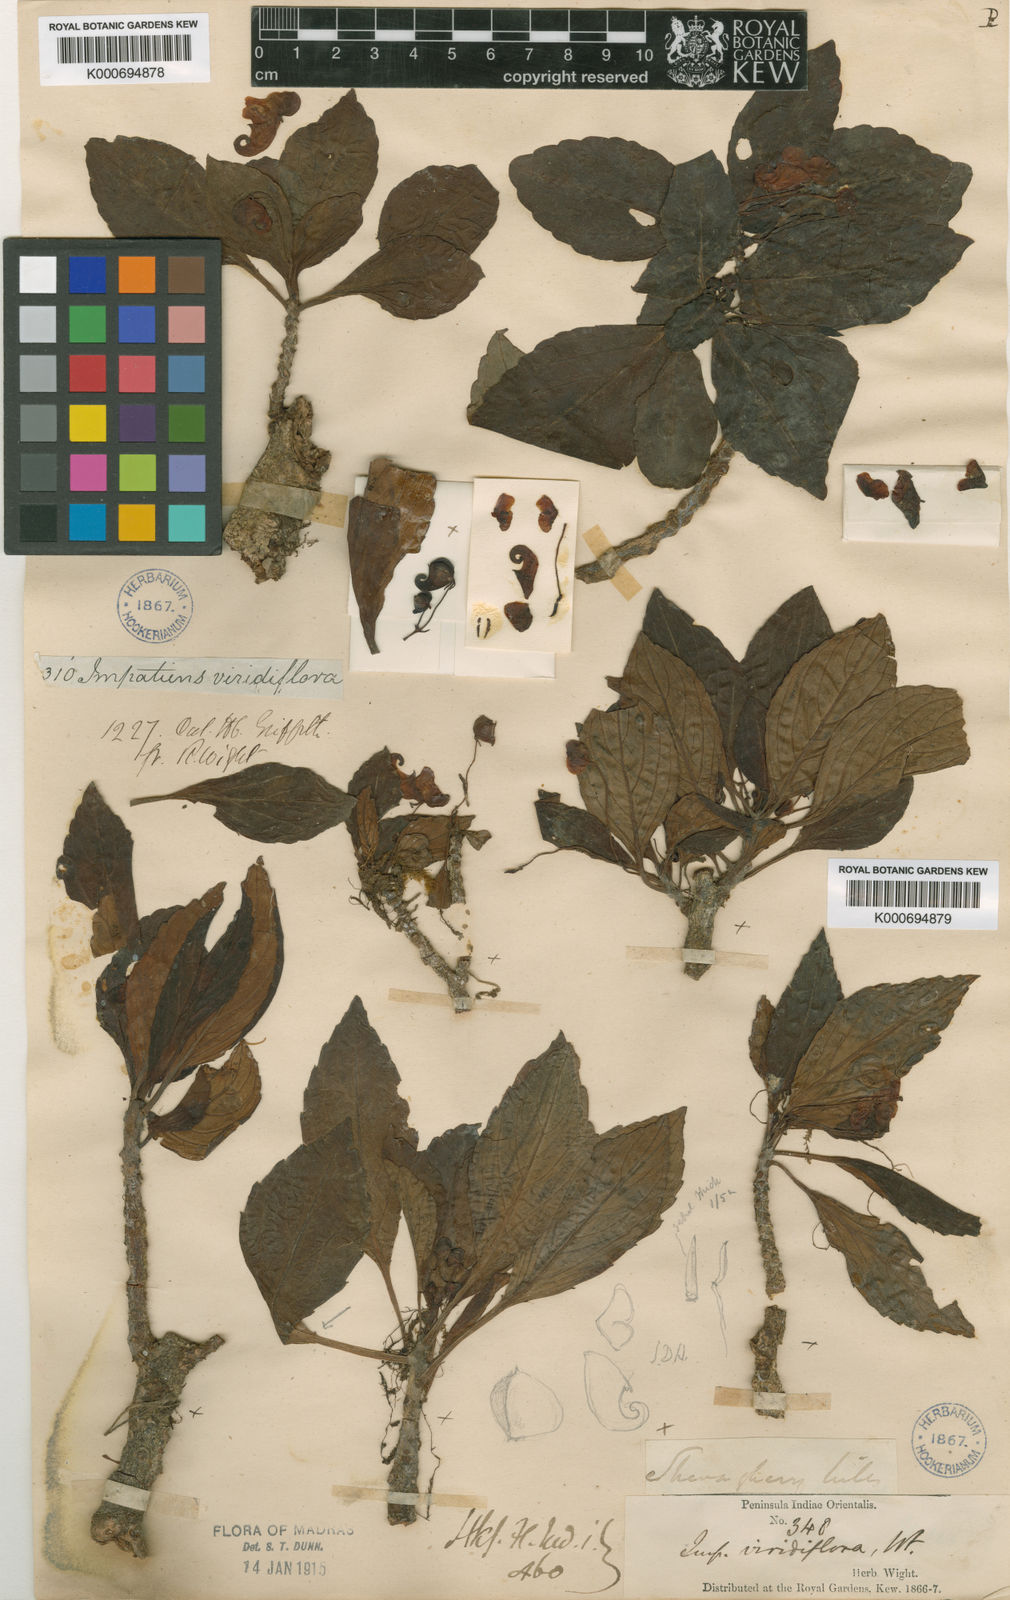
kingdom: Plantae
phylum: Tracheophyta
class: Magnoliopsida
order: Ericales
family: Balsaminaceae
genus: Impatiens
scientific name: Impatiens viridiflora
